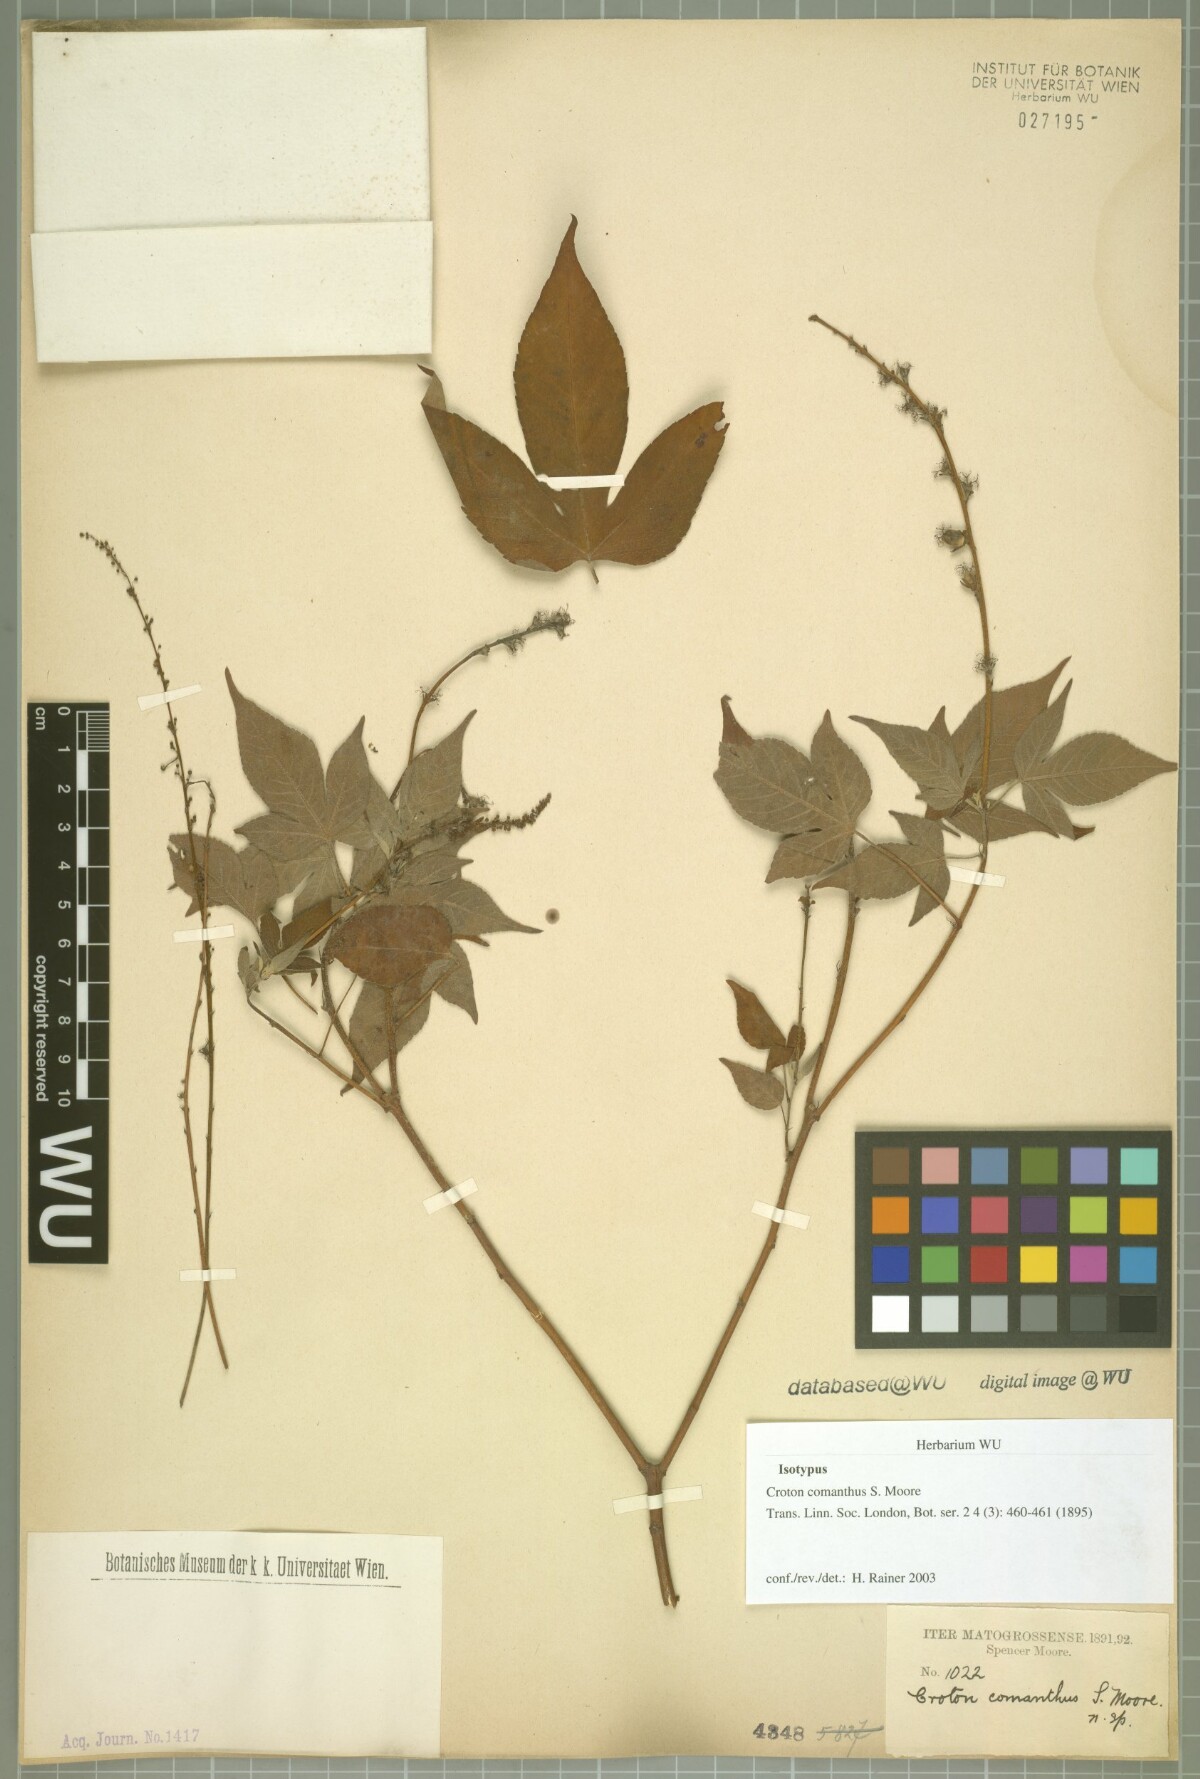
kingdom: Plantae
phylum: Tracheophyta
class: Magnoliopsida
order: Malpighiales
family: Euphorbiaceae
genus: Astraea
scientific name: Astraea paulina
